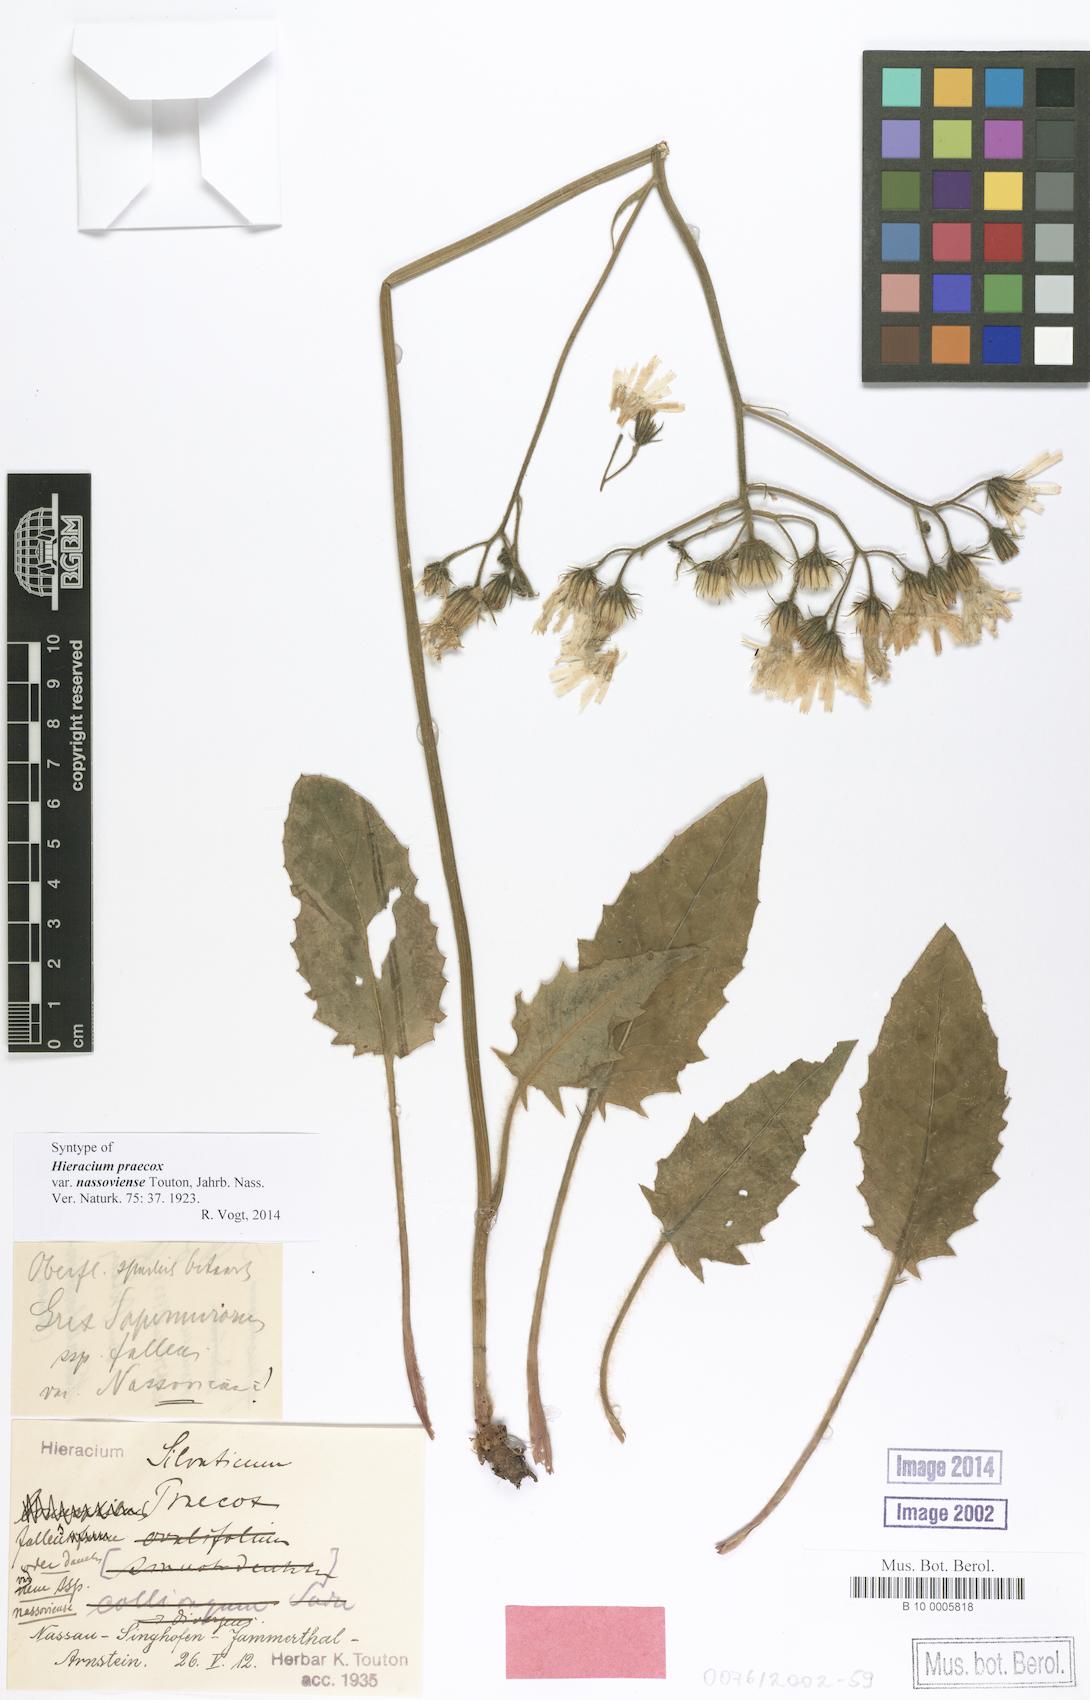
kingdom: Plantae
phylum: Tracheophyta
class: Magnoliopsida
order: Asterales
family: Asteraceae
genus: Hieracium
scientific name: Hieracium praecox
